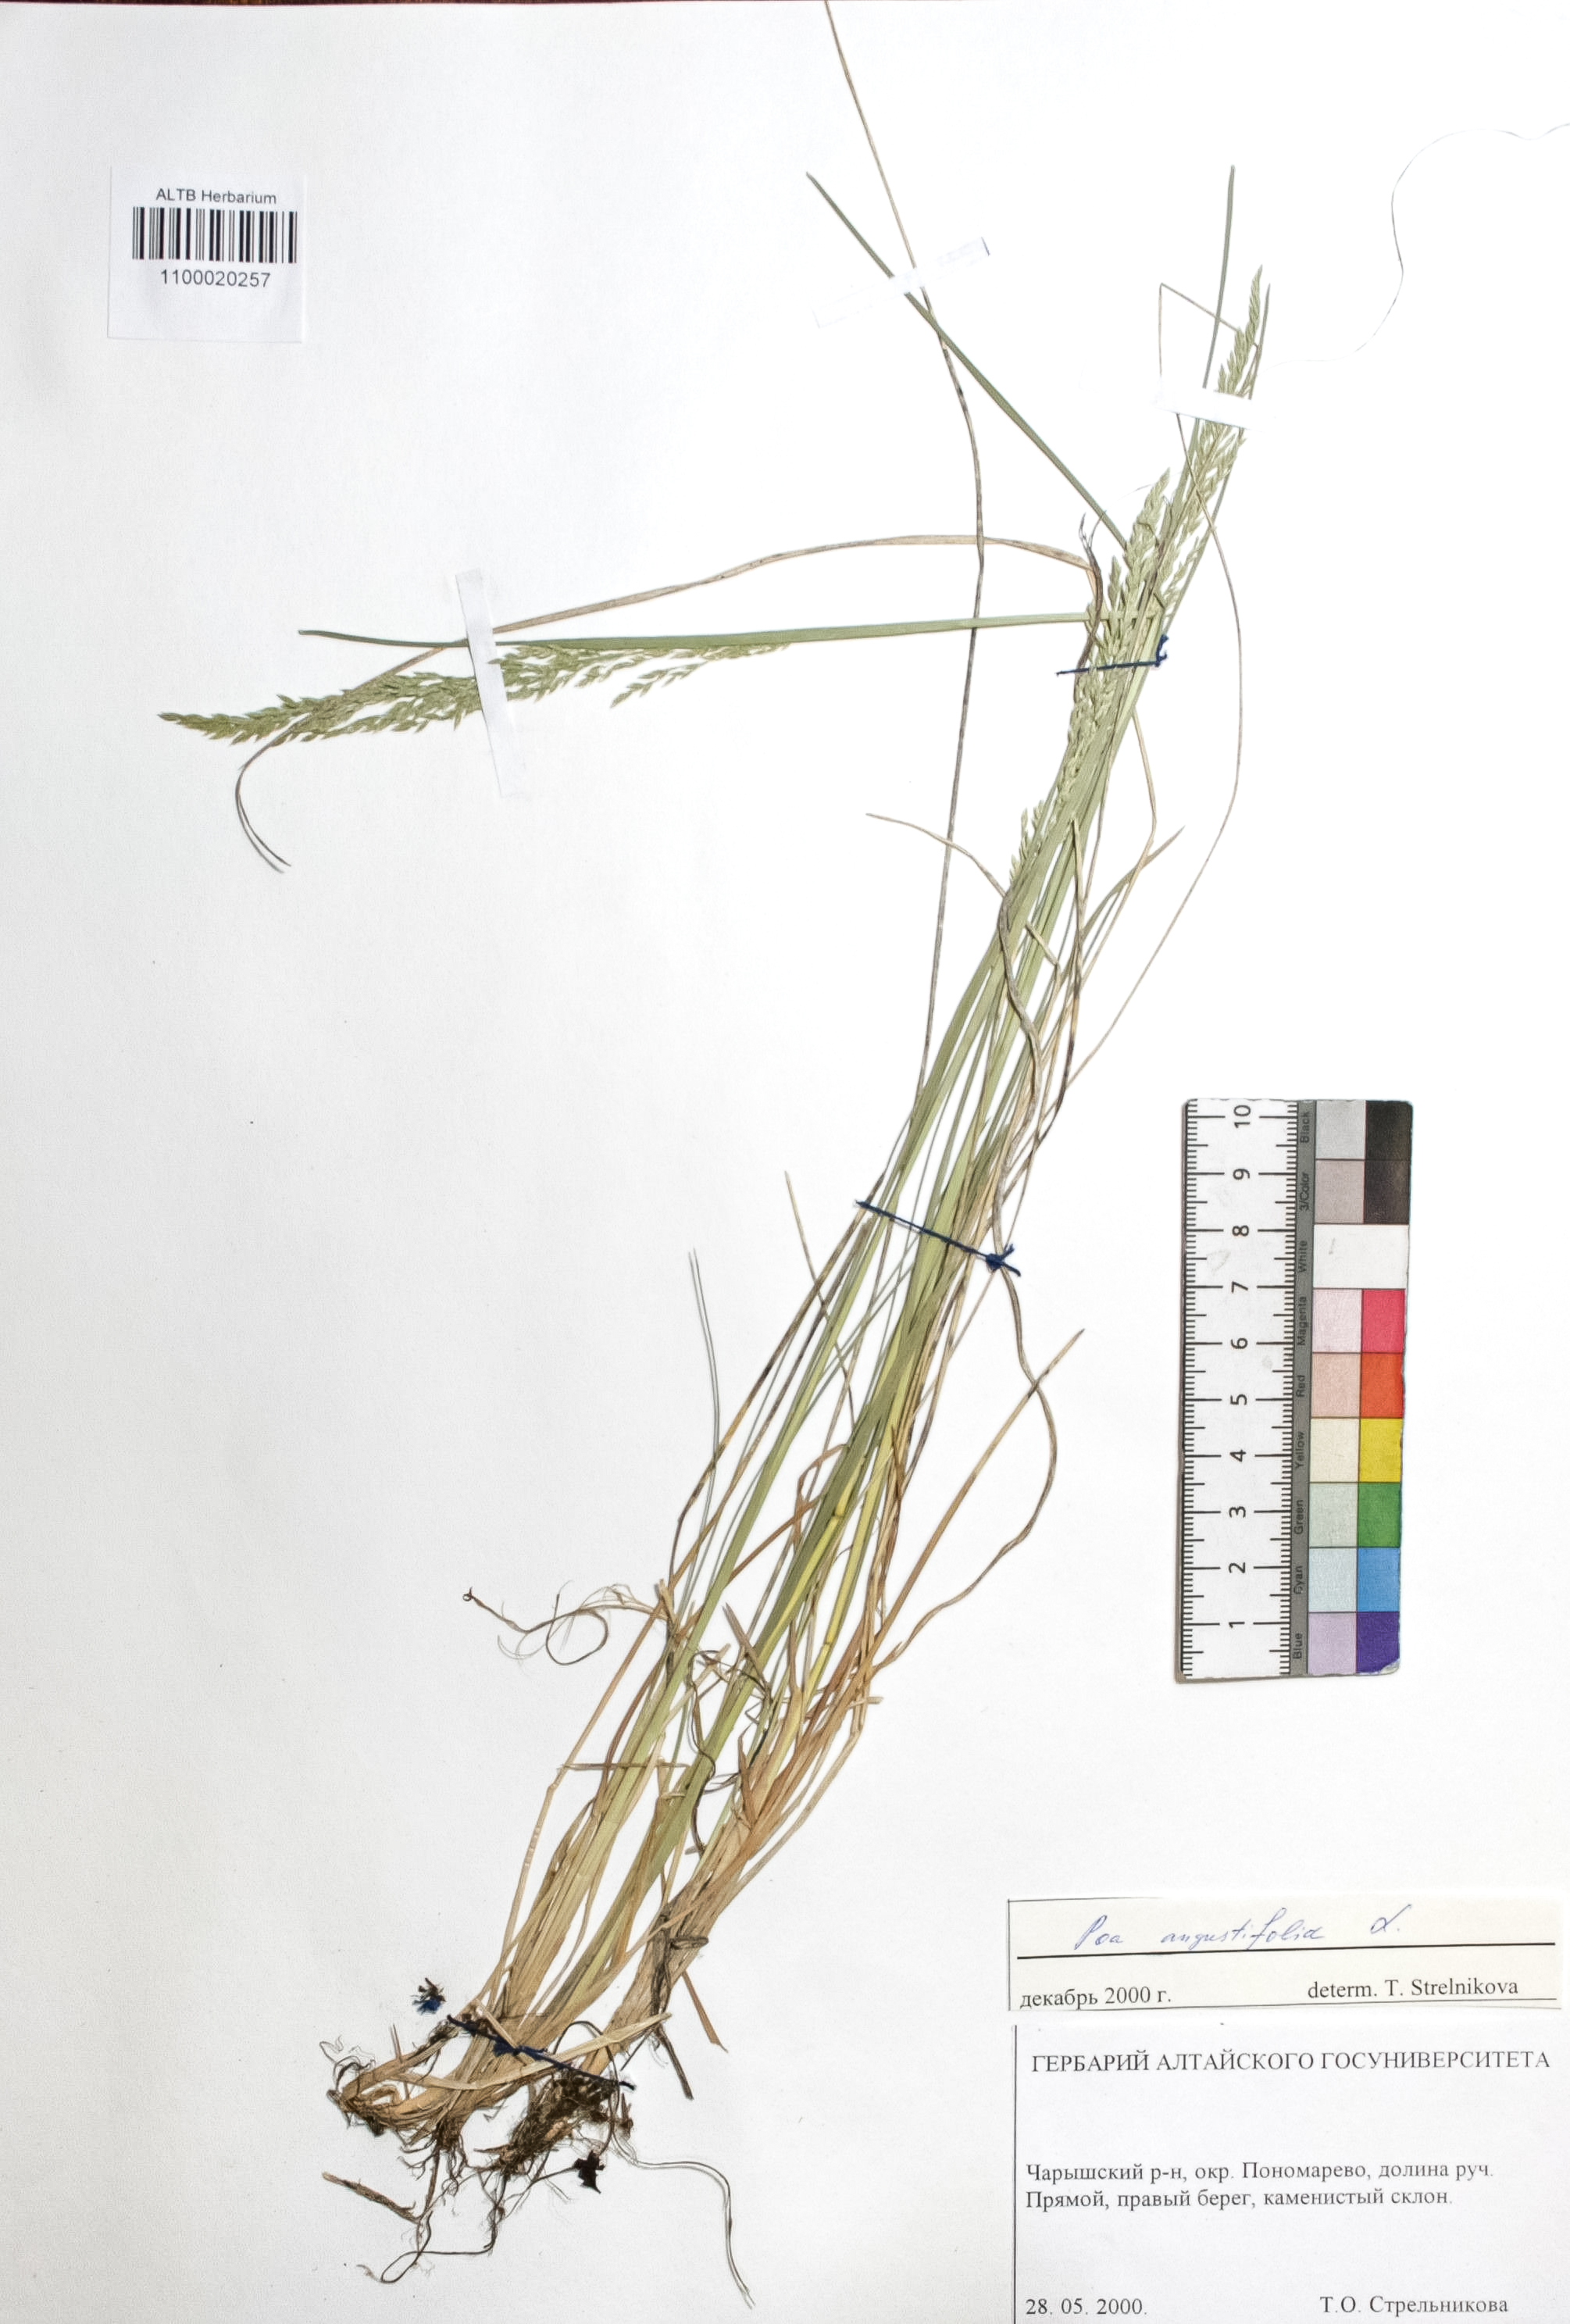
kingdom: Plantae
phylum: Tracheophyta
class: Liliopsida
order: Poales
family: Poaceae
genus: Poa
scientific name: Poa angustifolia
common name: Narrow-leaved meadow-grass
